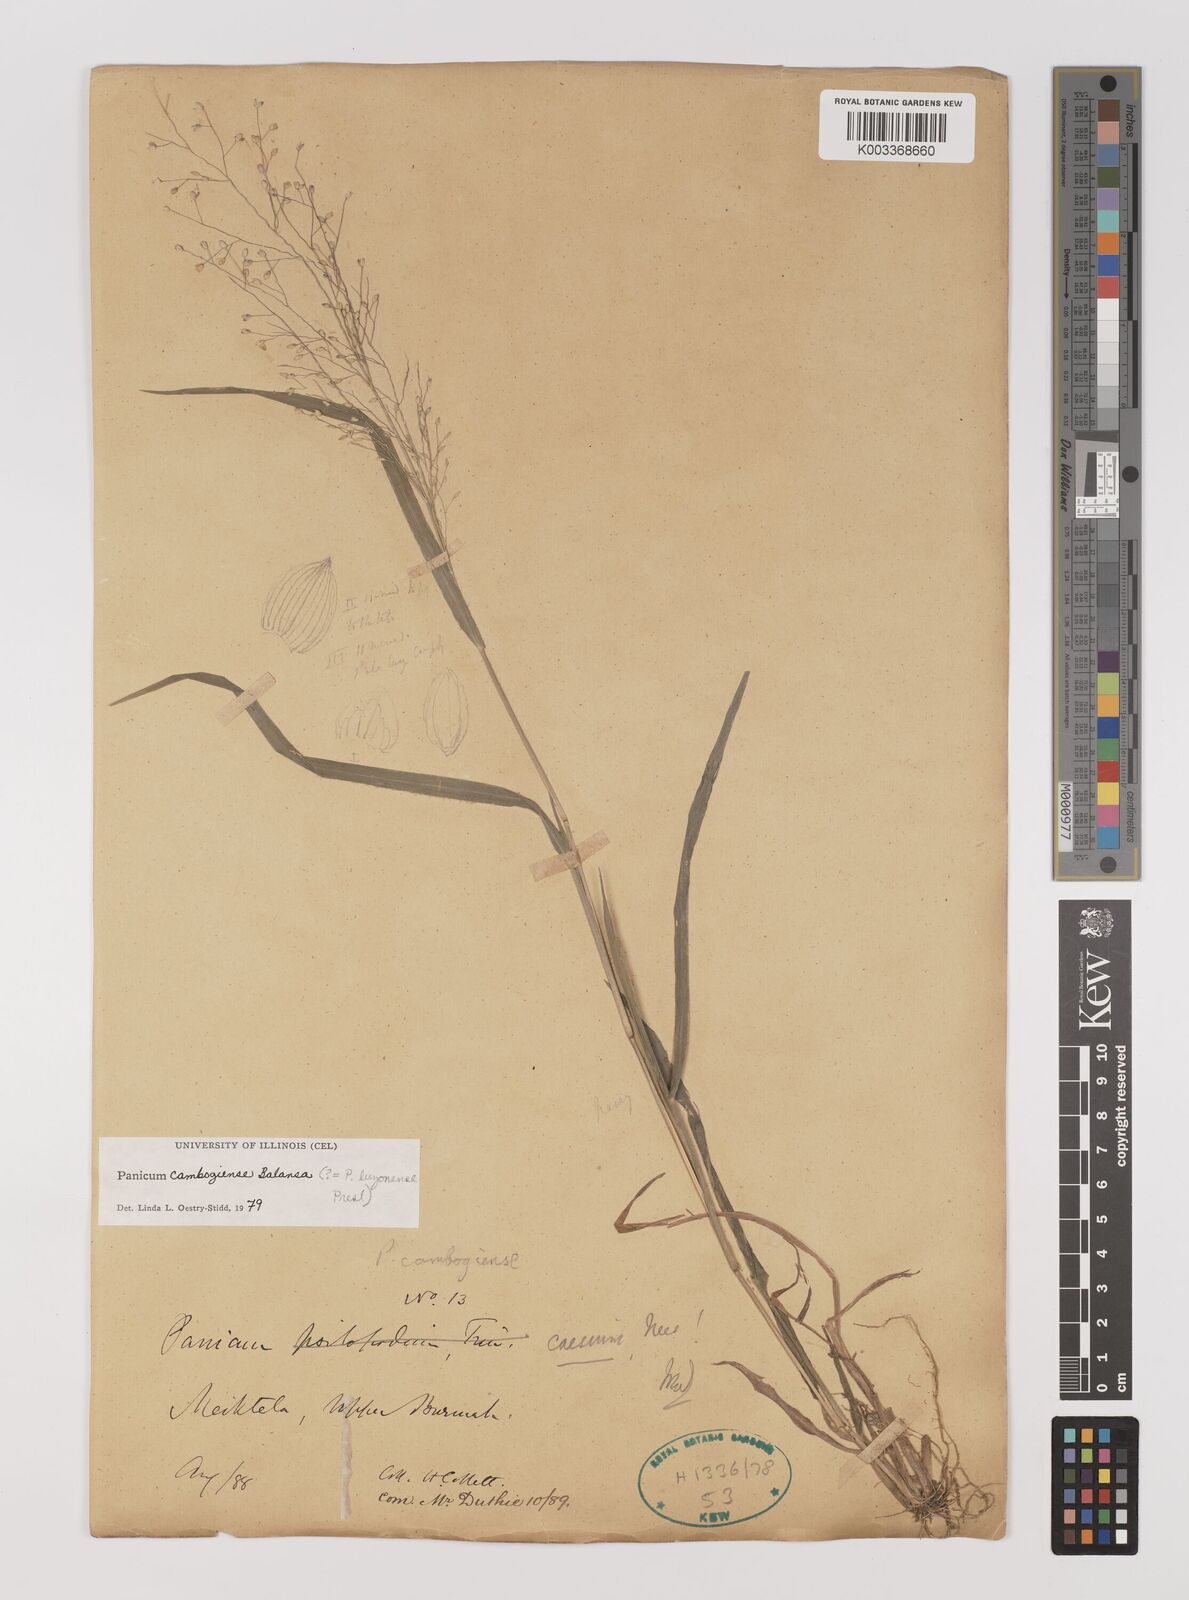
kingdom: Plantae
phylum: Tracheophyta
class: Liliopsida
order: Poales
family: Poaceae
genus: Panicum
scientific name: Panicum luzonense
